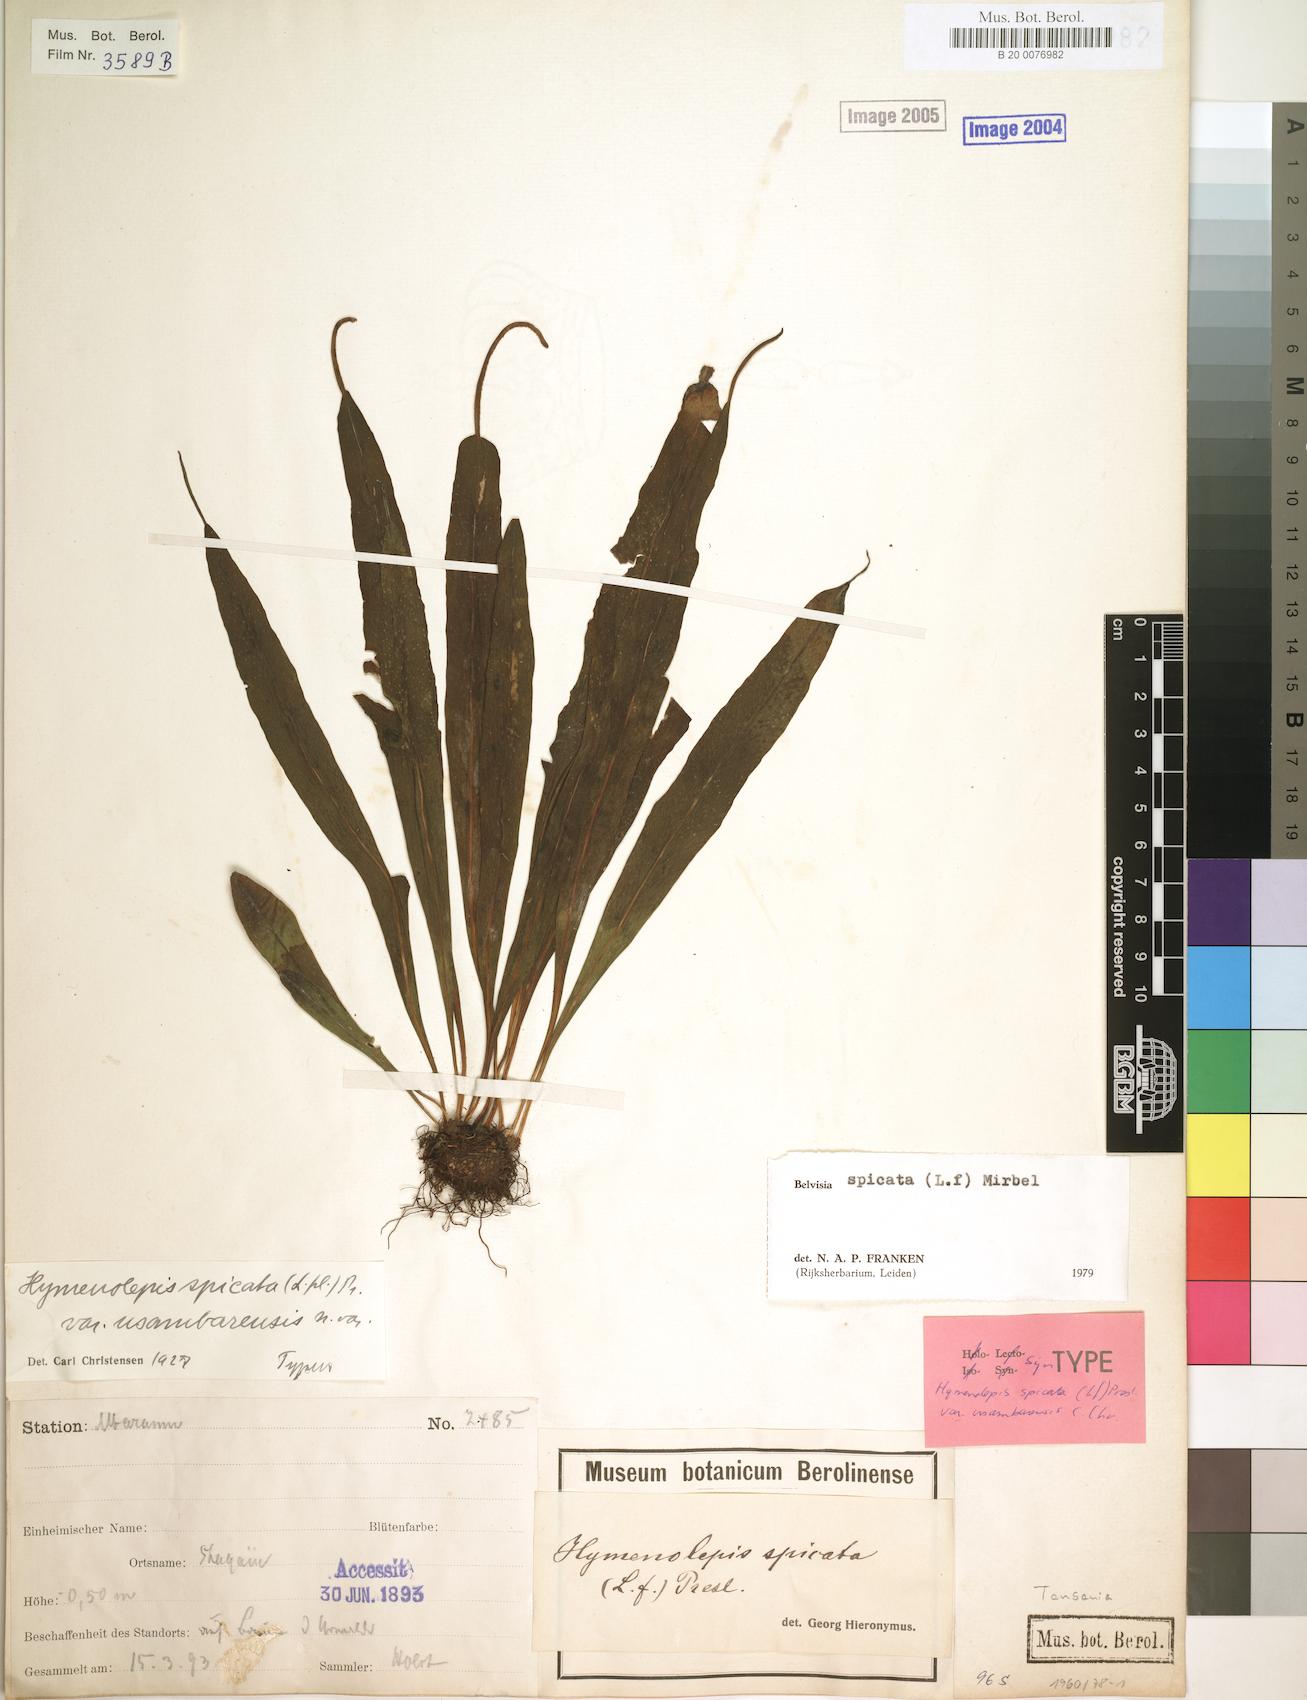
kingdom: Plantae
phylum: Tracheophyta
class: Polypodiopsida
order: Polypodiales
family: Polypodiaceae
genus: Lepisorus
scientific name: Lepisorus spicatus
